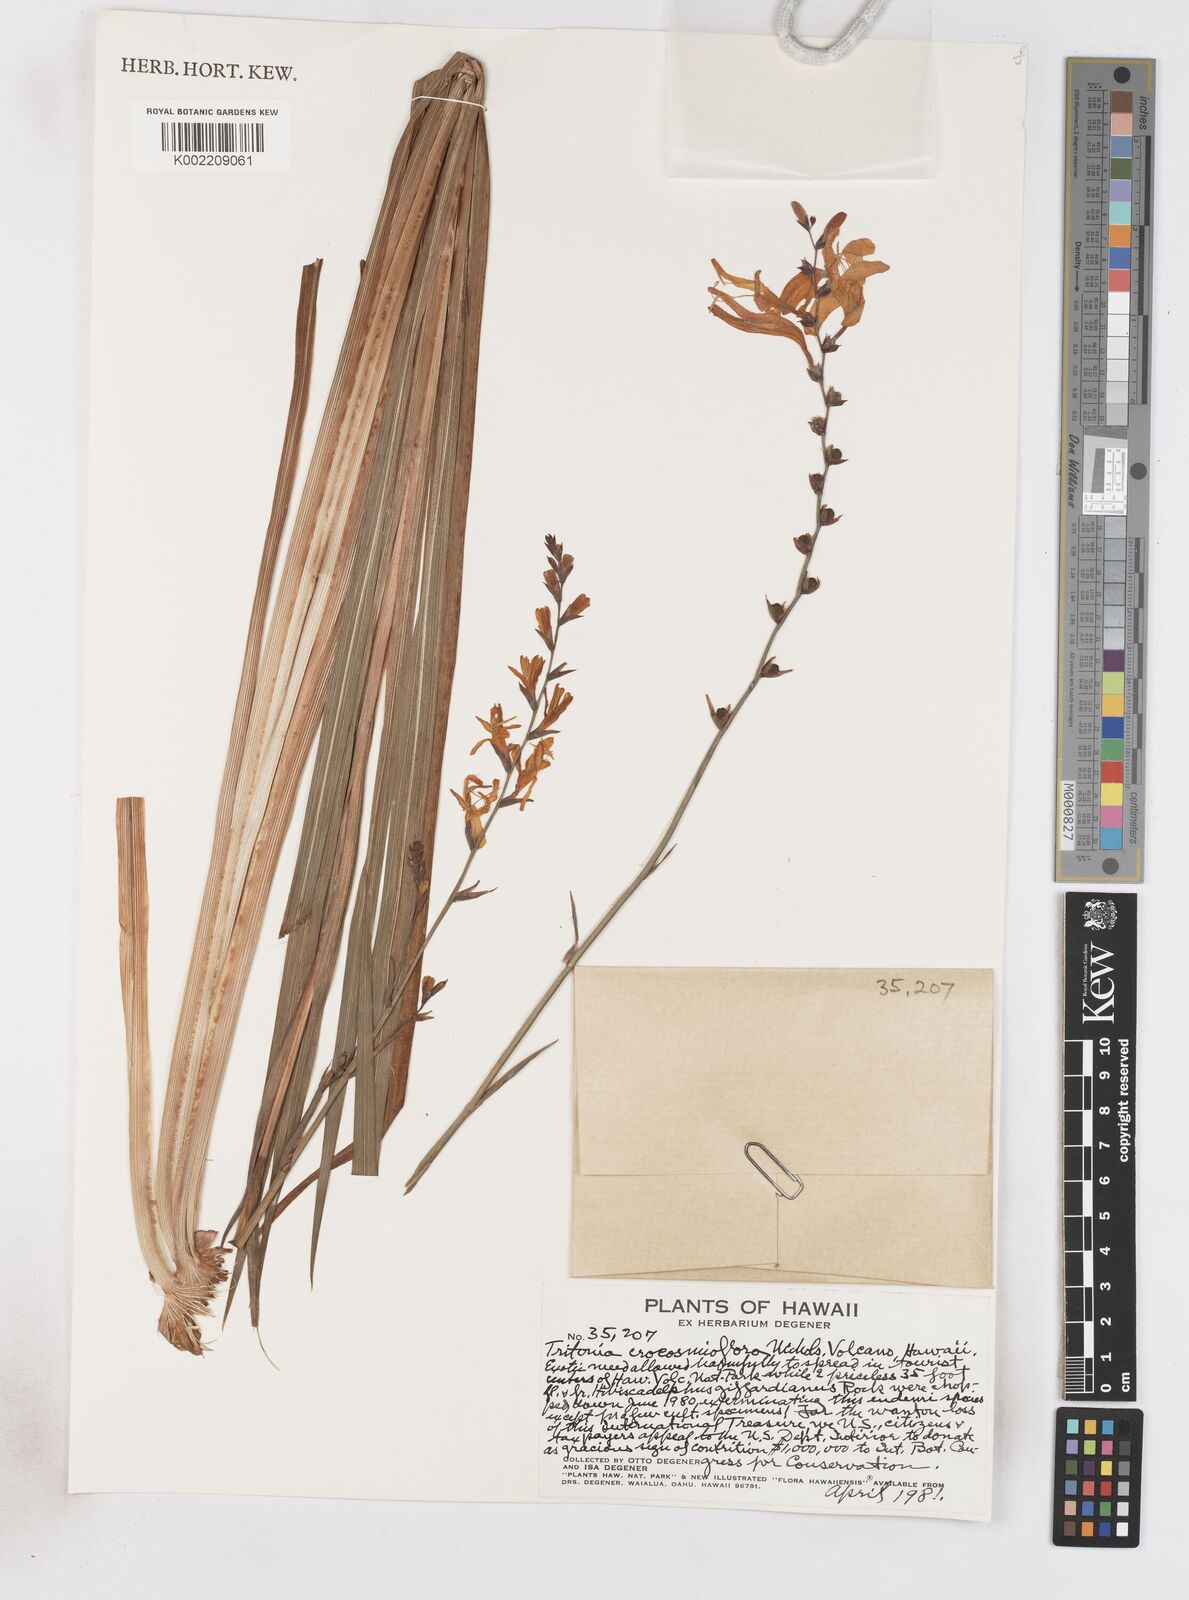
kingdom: Plantae
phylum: Tracheophyta
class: Liliopsida
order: Asparagales
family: Iridaceae
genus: Crocosmia
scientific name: Crocosmia crocosmiiflora
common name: Montbretia
